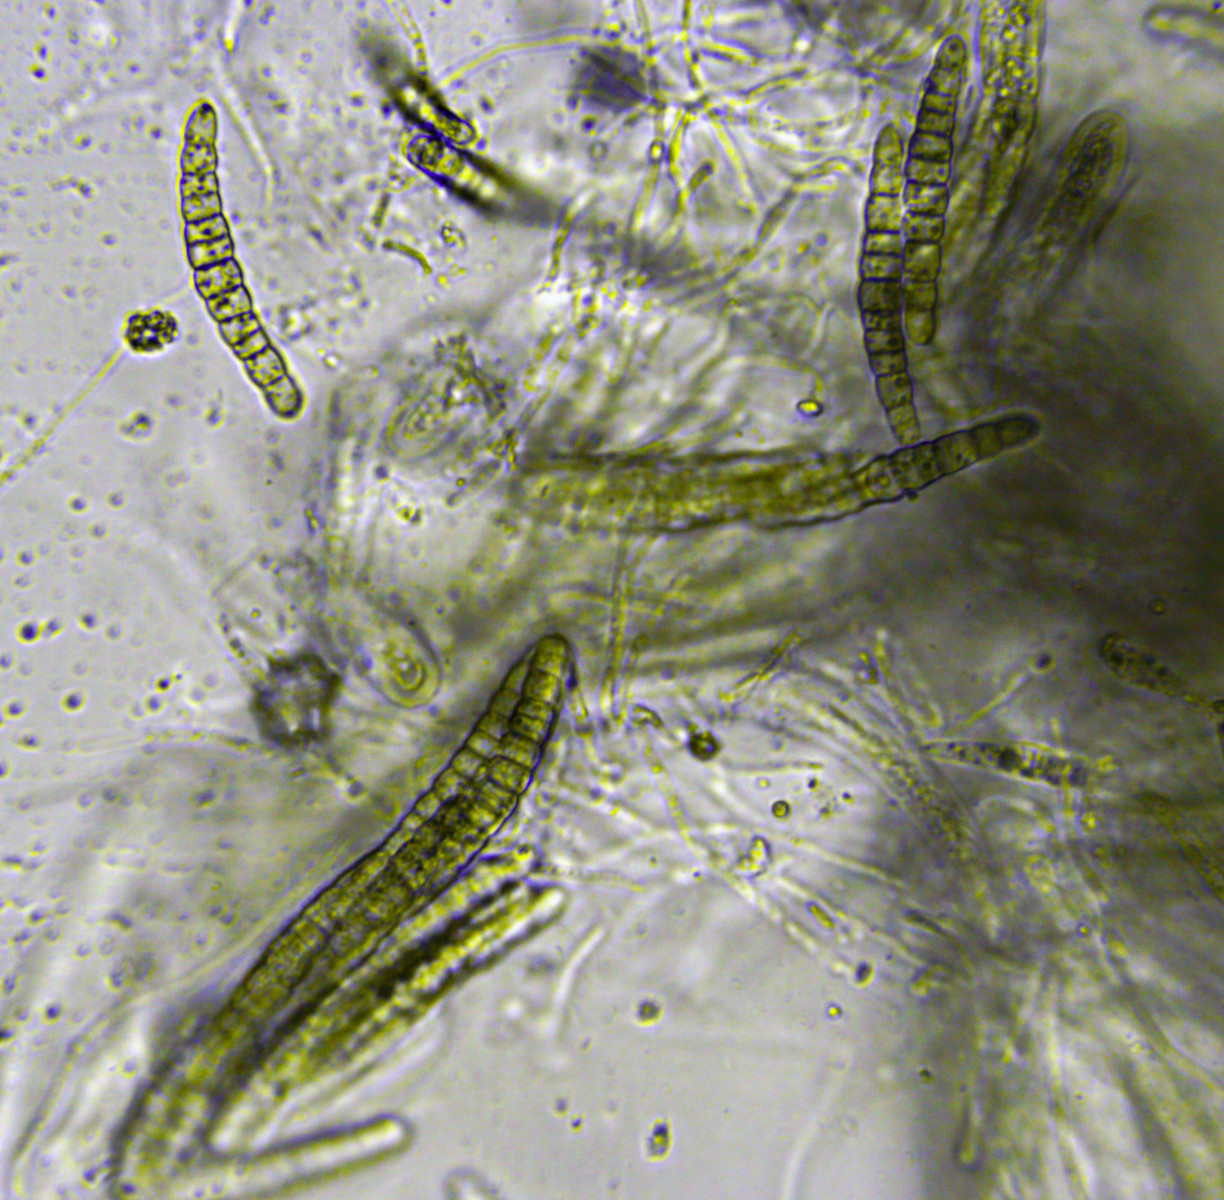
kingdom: Fungi
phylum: Ascomycota
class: Dothideomycetes
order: Pleosporales
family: Leptosphaeriaceae
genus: Leptosphaeria
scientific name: Leptosphaeria acuta
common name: spids kulkegle
